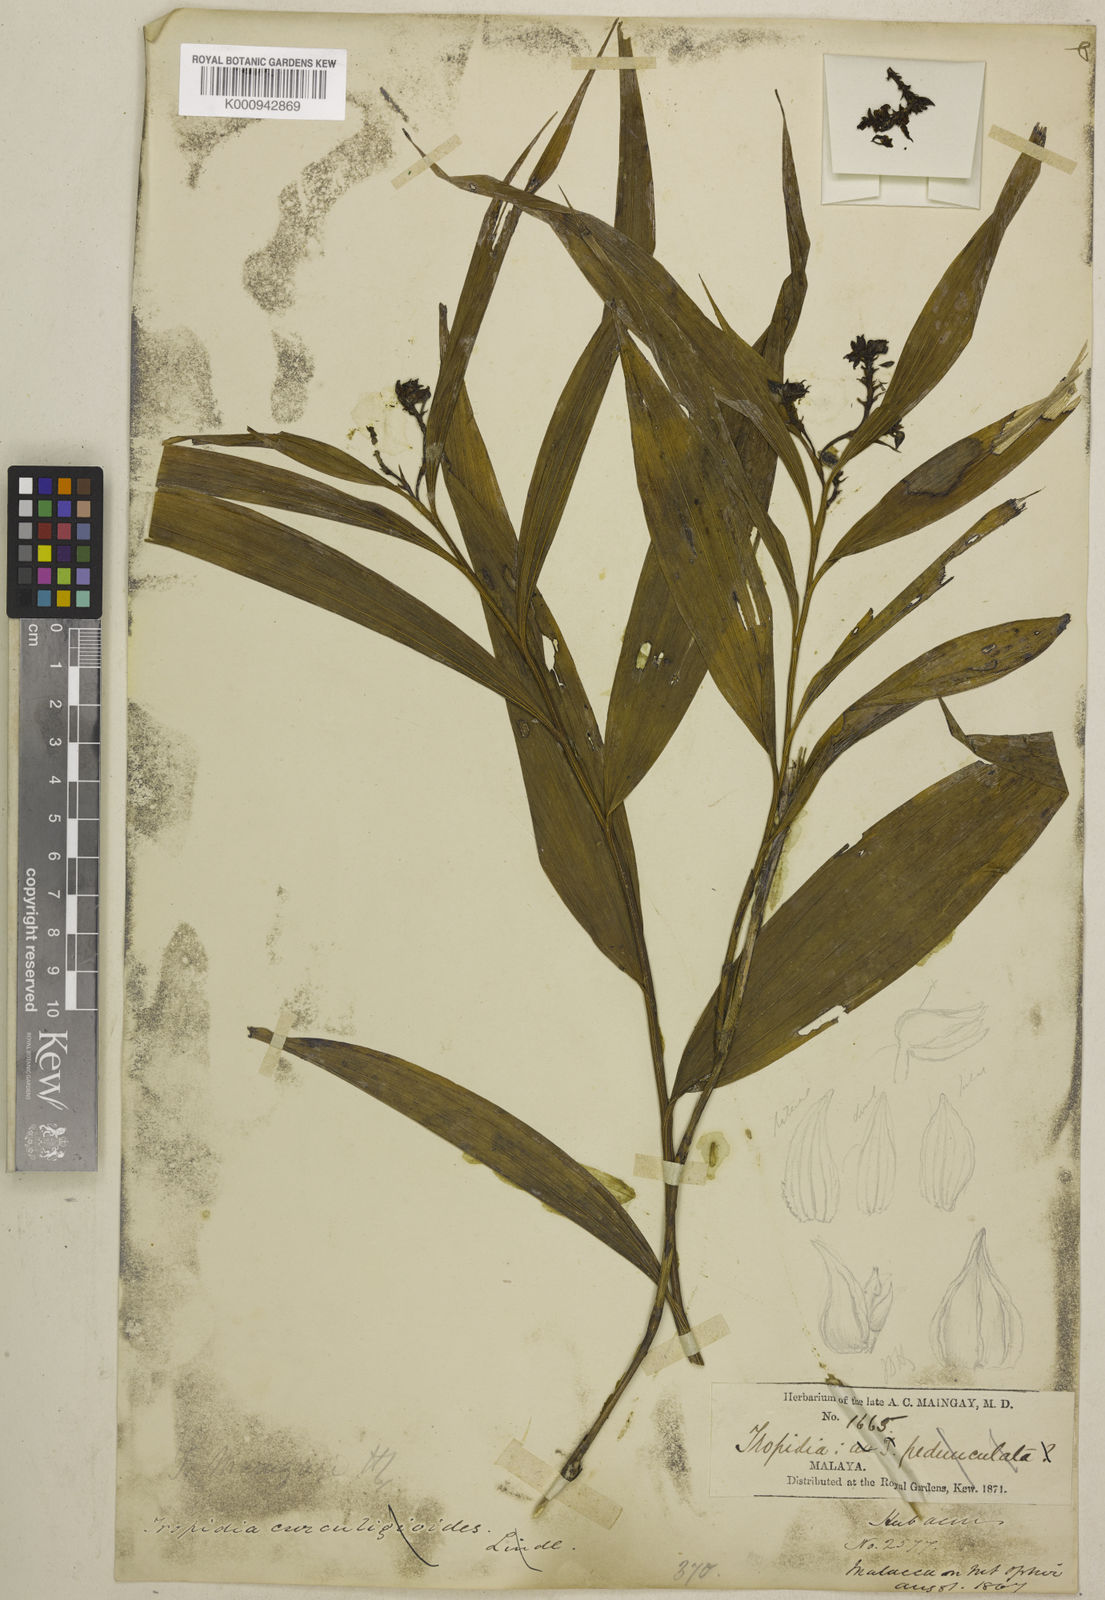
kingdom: Plantae
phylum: Tracheophyta
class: Liliopsida
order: Asparagales
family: Orchidaceae
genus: Tropidia
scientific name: Tropidia pedunculata
